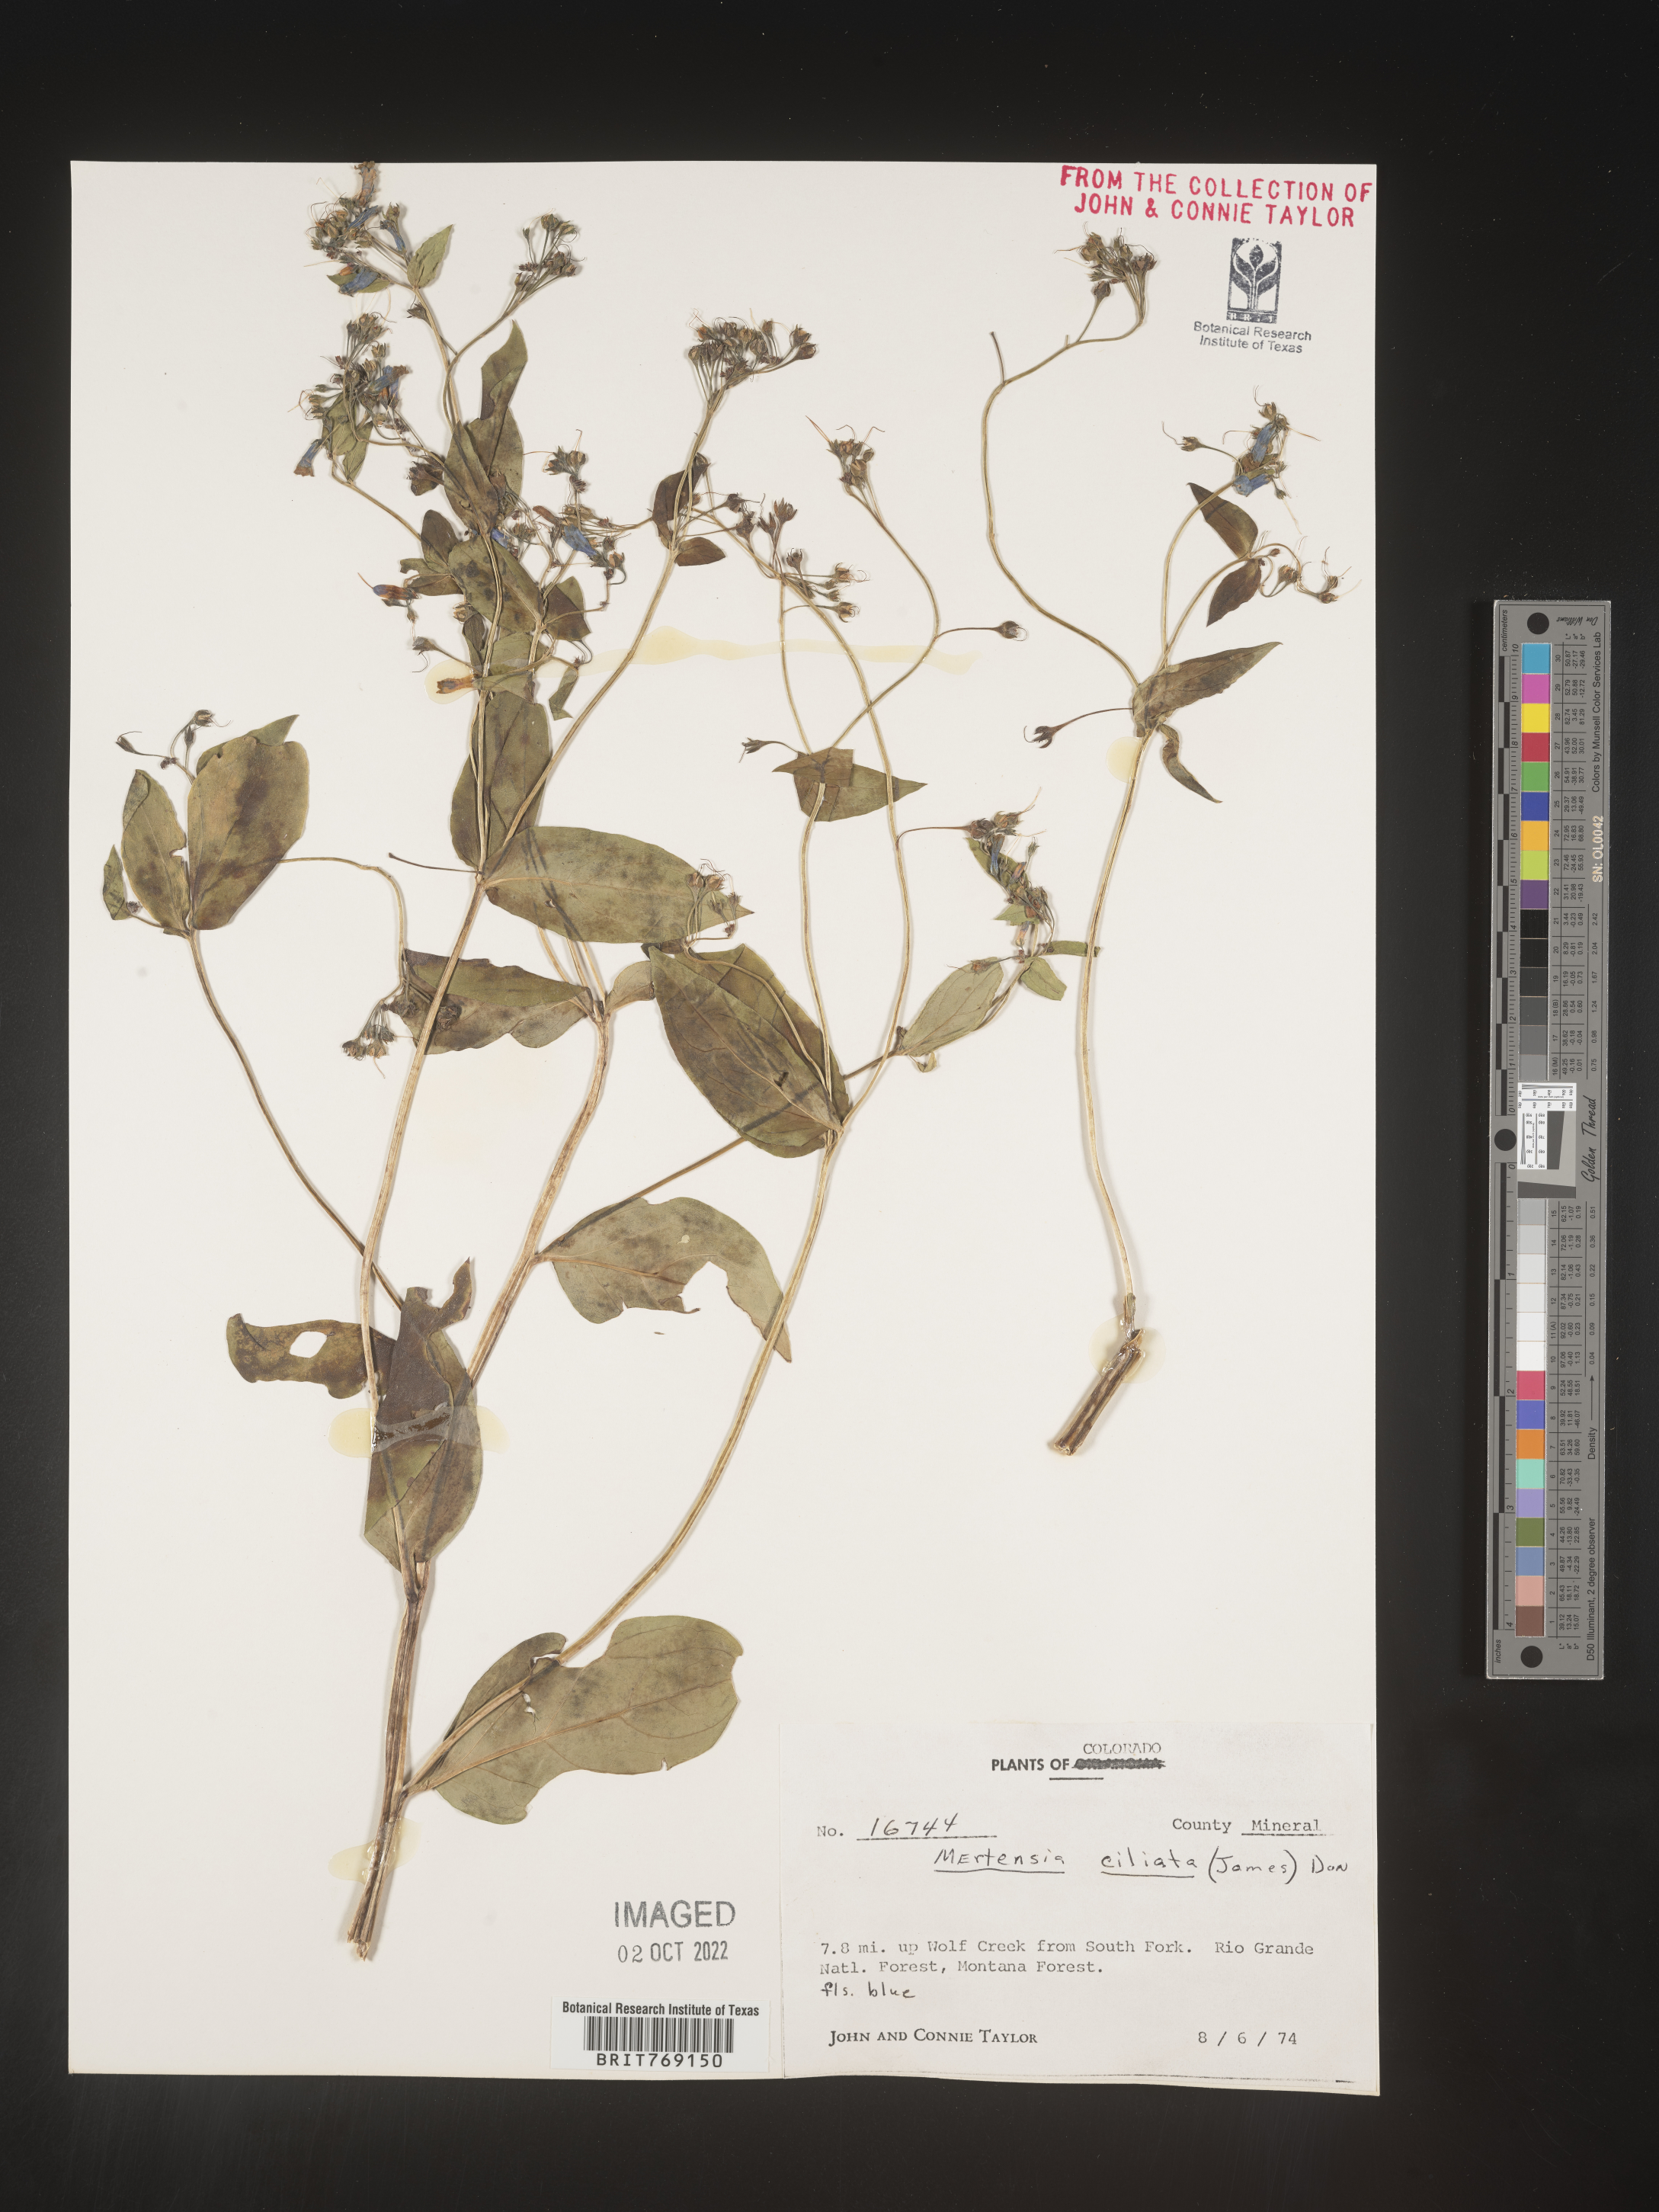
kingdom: Plantae
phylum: Tracheophyta
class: Magnoliopsida
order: Boraginales
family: Boraginaceae
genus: Mertensia
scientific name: Mertensia
